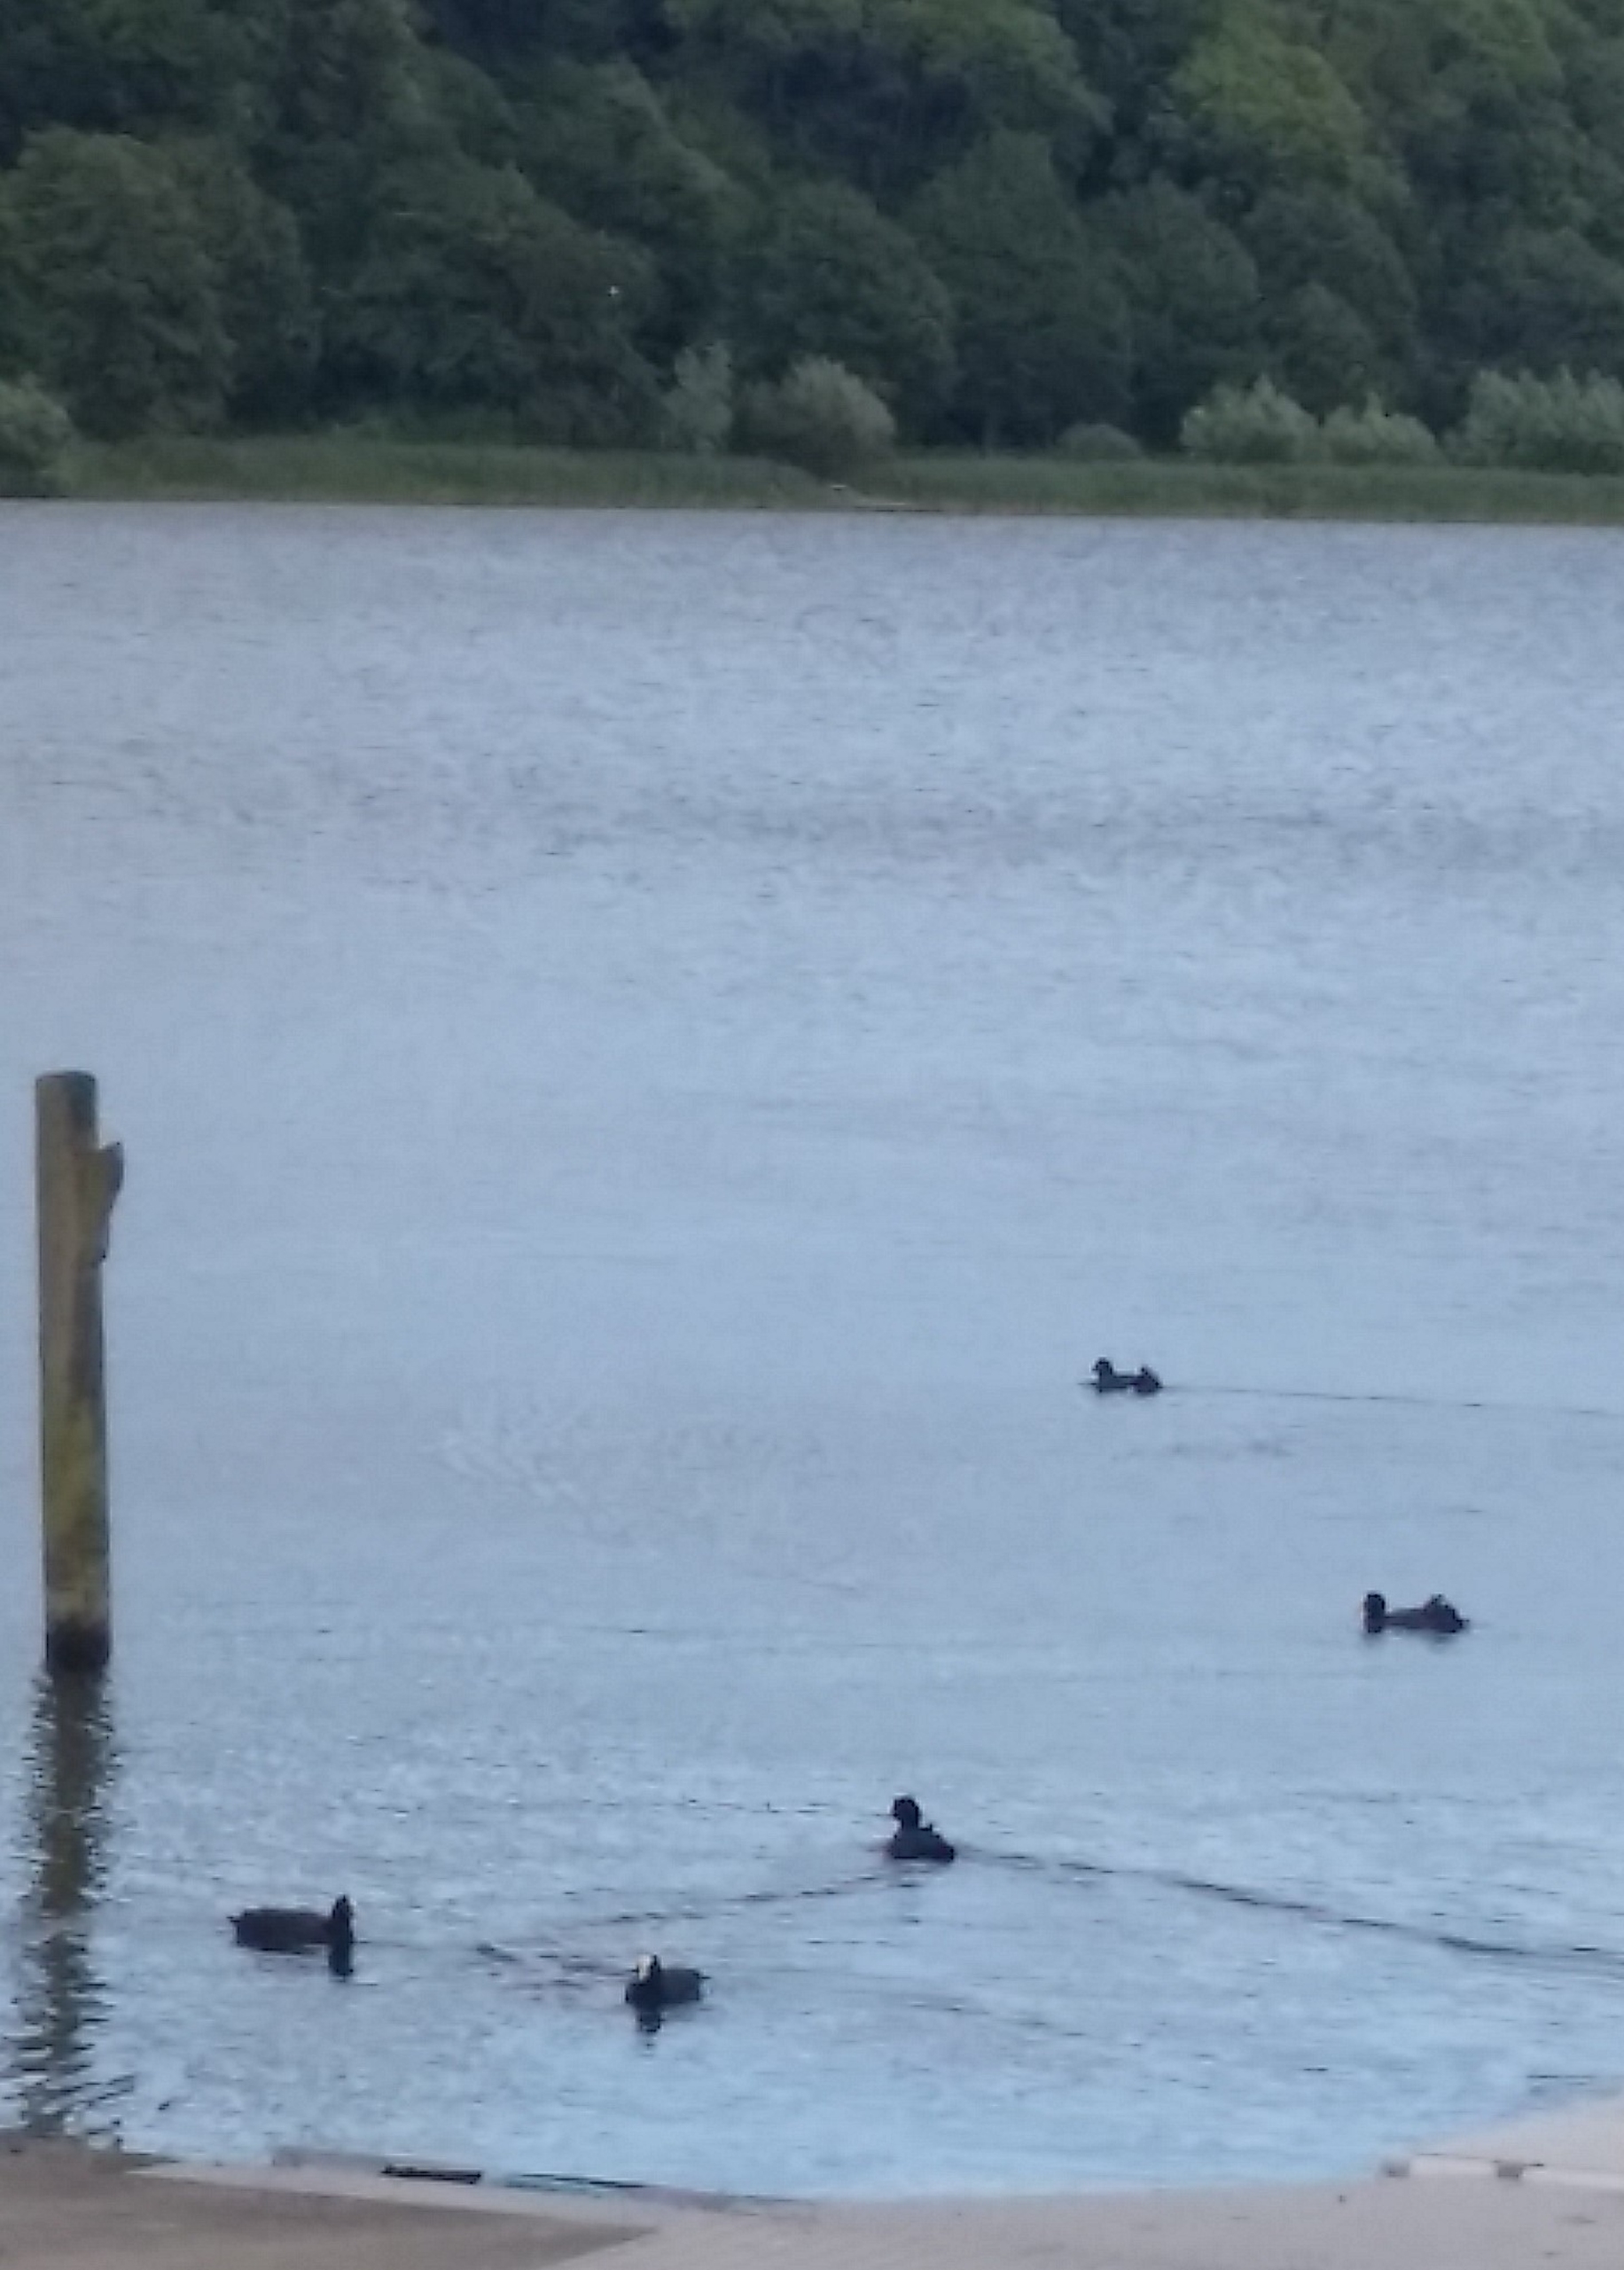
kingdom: Animalia
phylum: Chordata
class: Aves
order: Gruiformes
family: Rallidae
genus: Fulica
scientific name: Fulica atra
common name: Blishøne
